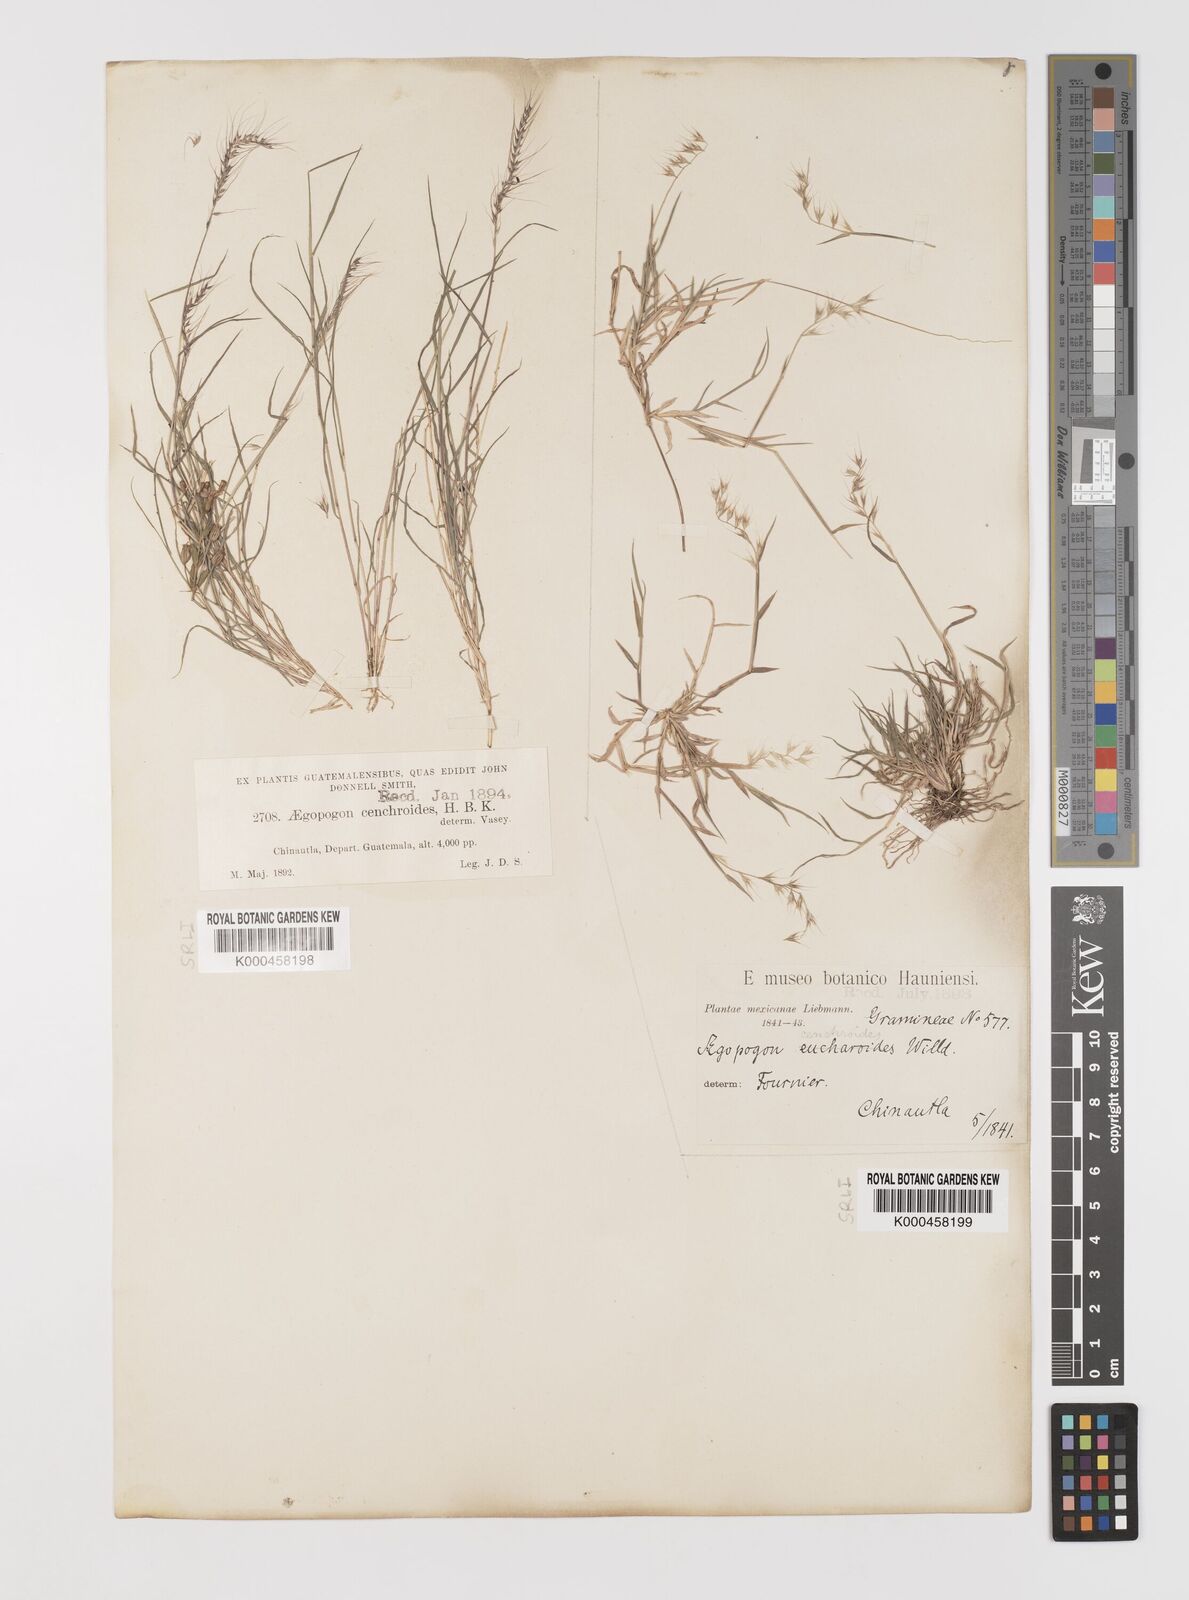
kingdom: Plantae
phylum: Tracheophyta
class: Liliopsida
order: Poales
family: Poaceae
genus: Muhlenbergia
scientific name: Muhlenbergia
